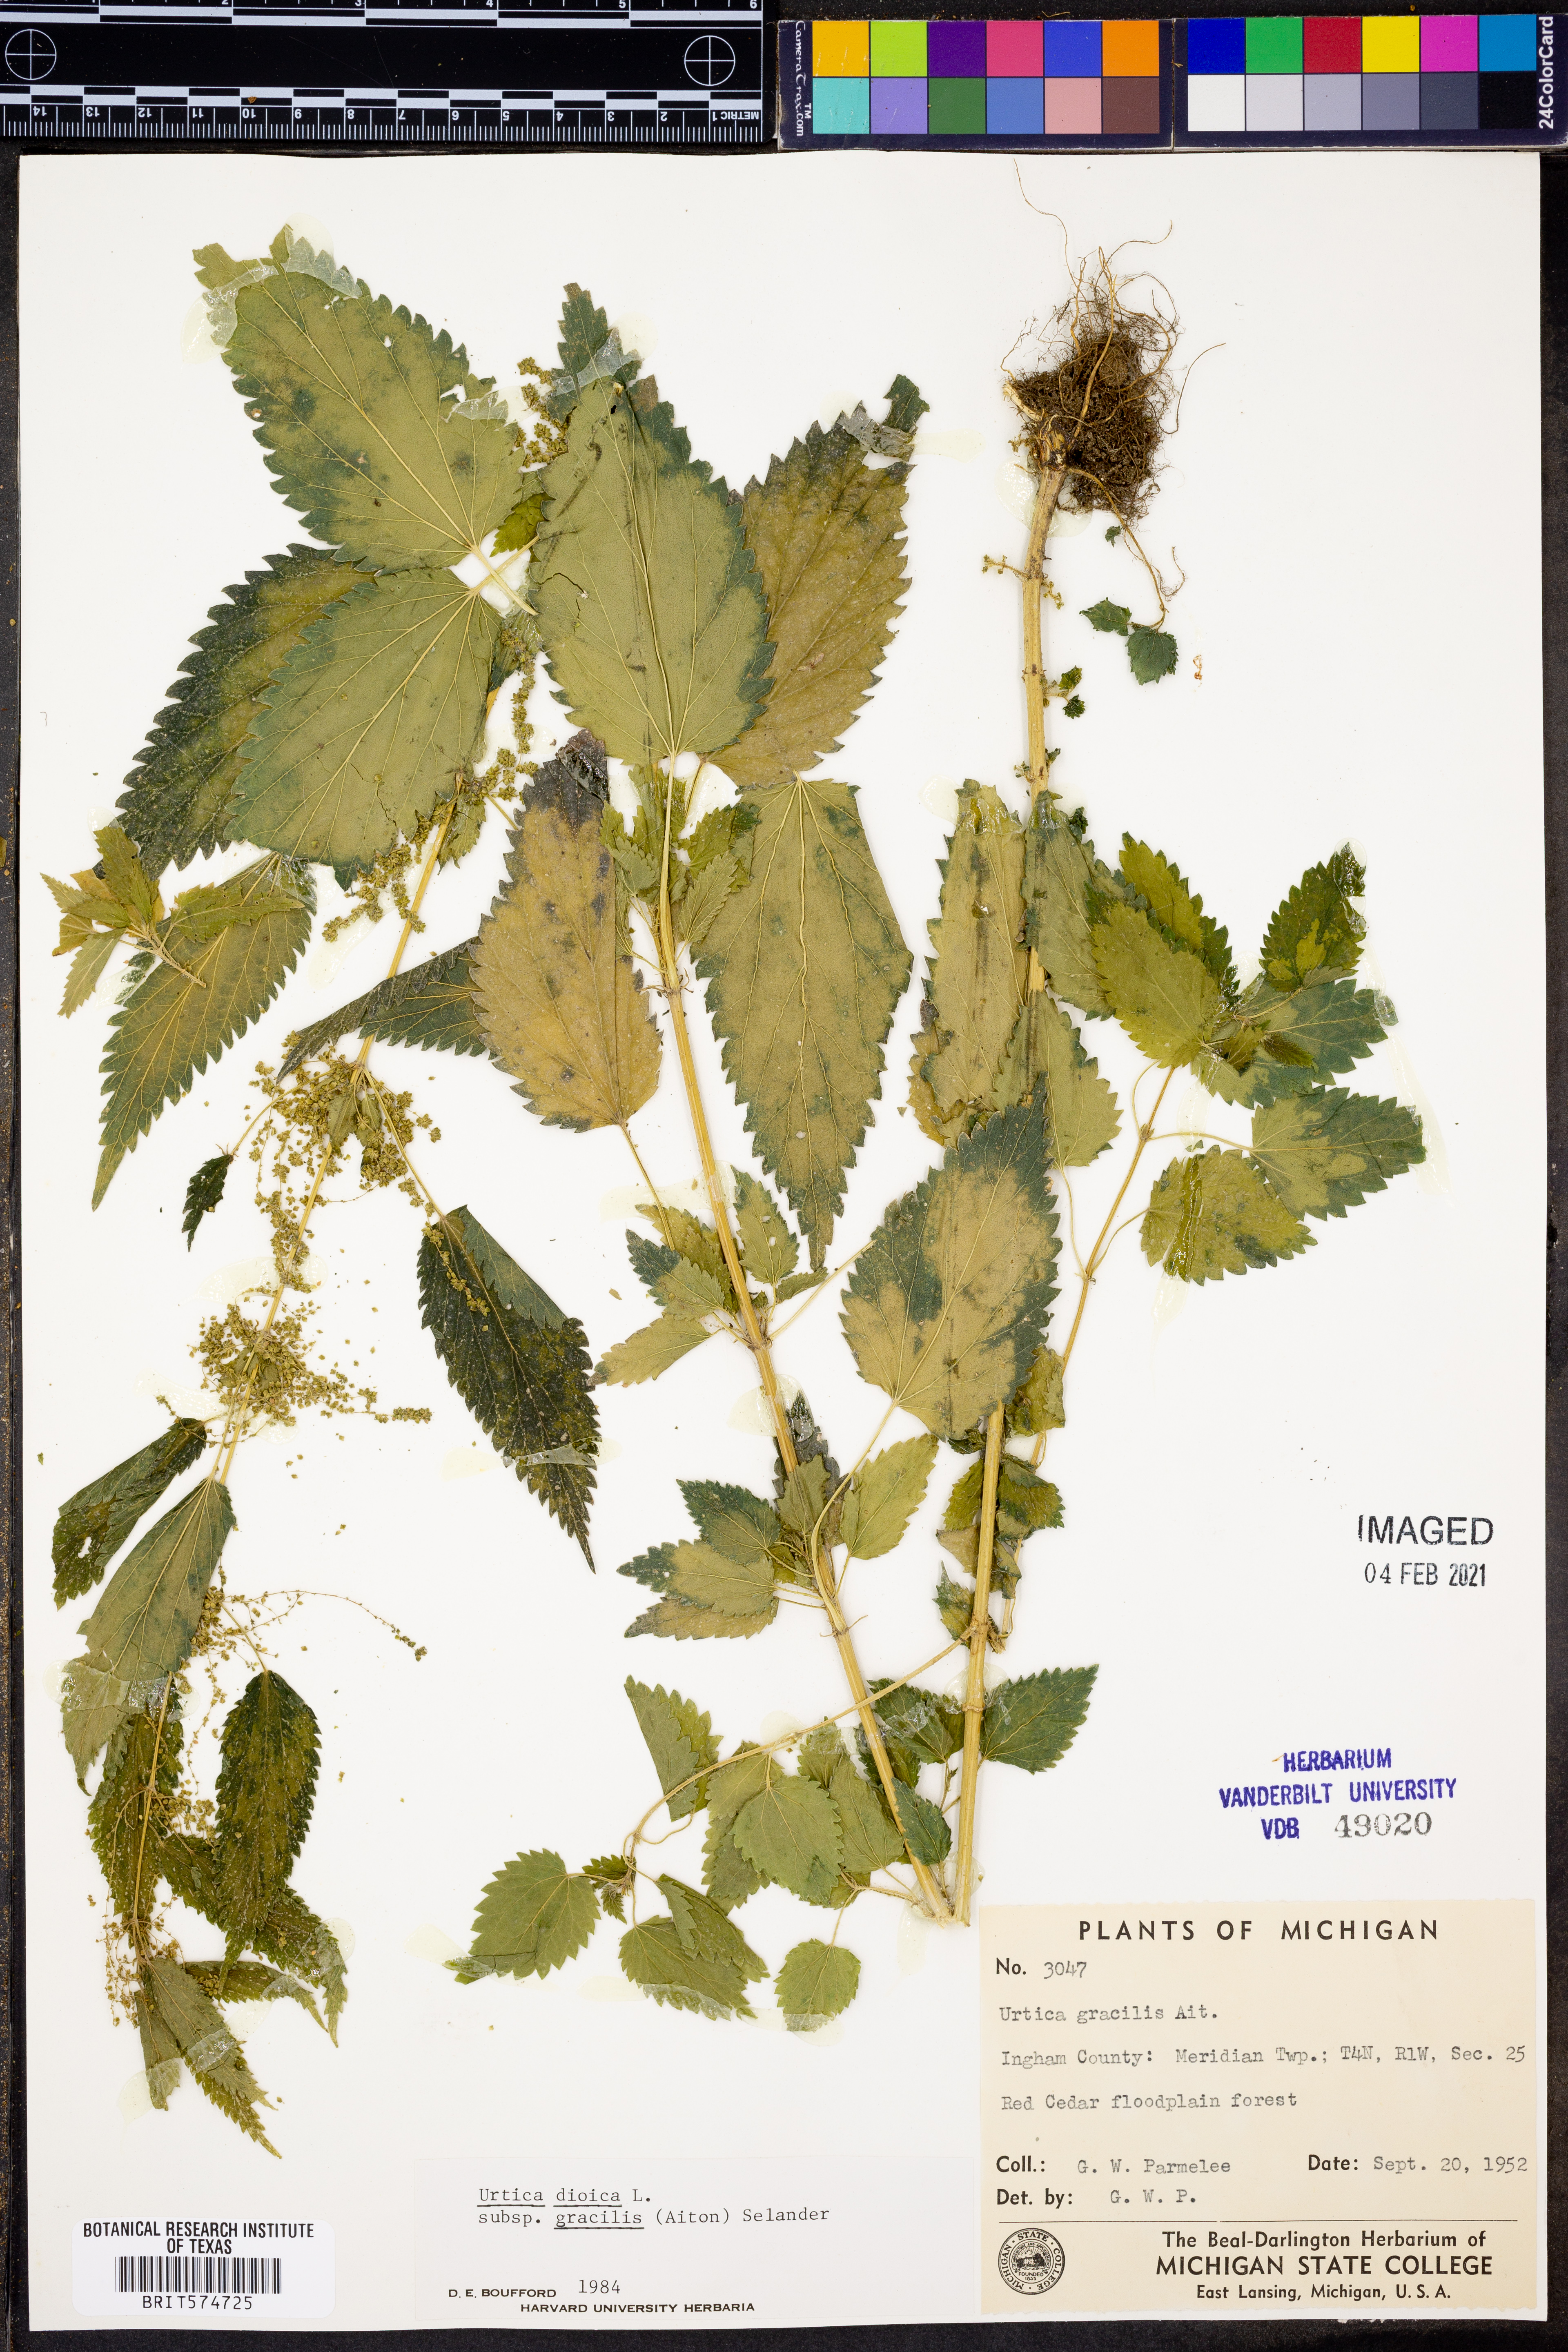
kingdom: Plantae
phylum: Tracheophyta
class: Magnoliopsida
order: Rosales
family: Urticaceae
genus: Urtica
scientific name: Urtica gracilis
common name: Slender stinging nettle
